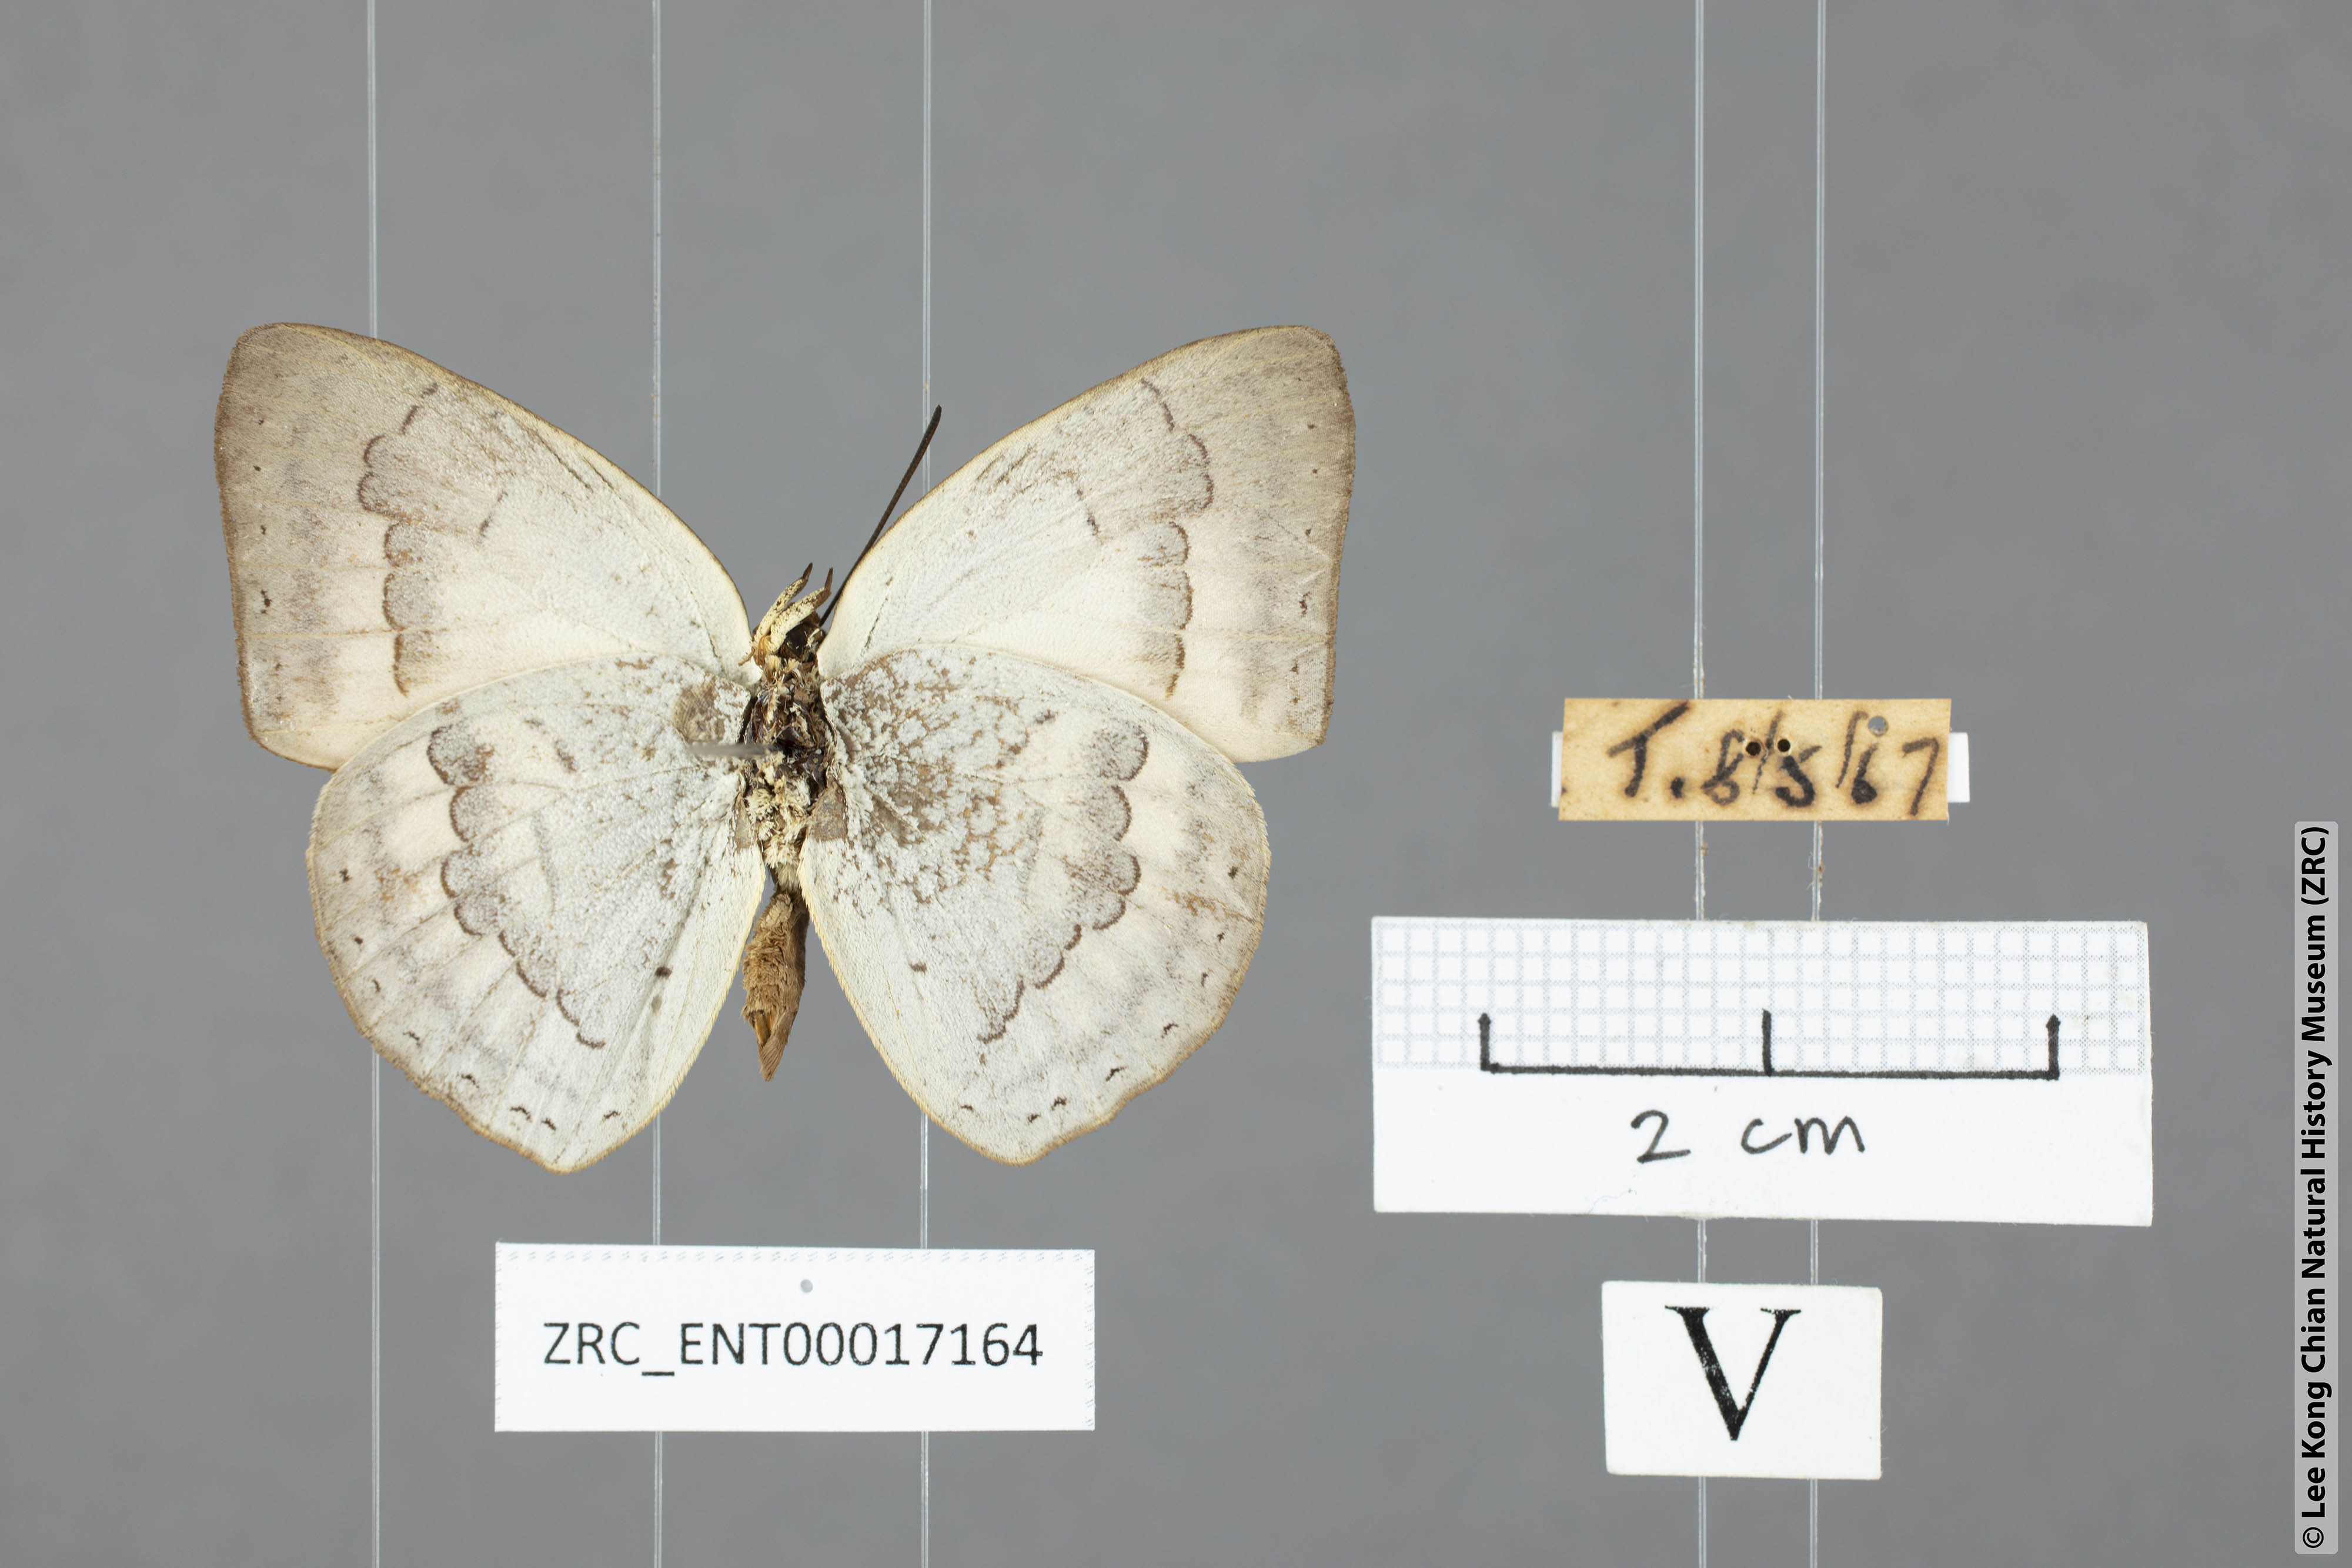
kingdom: Animalia
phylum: Arthropoda
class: Insecta
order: Lepidoptera
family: Lycaenidae
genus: Curetis
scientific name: Curetis tagalica
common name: Southern sunbeam
